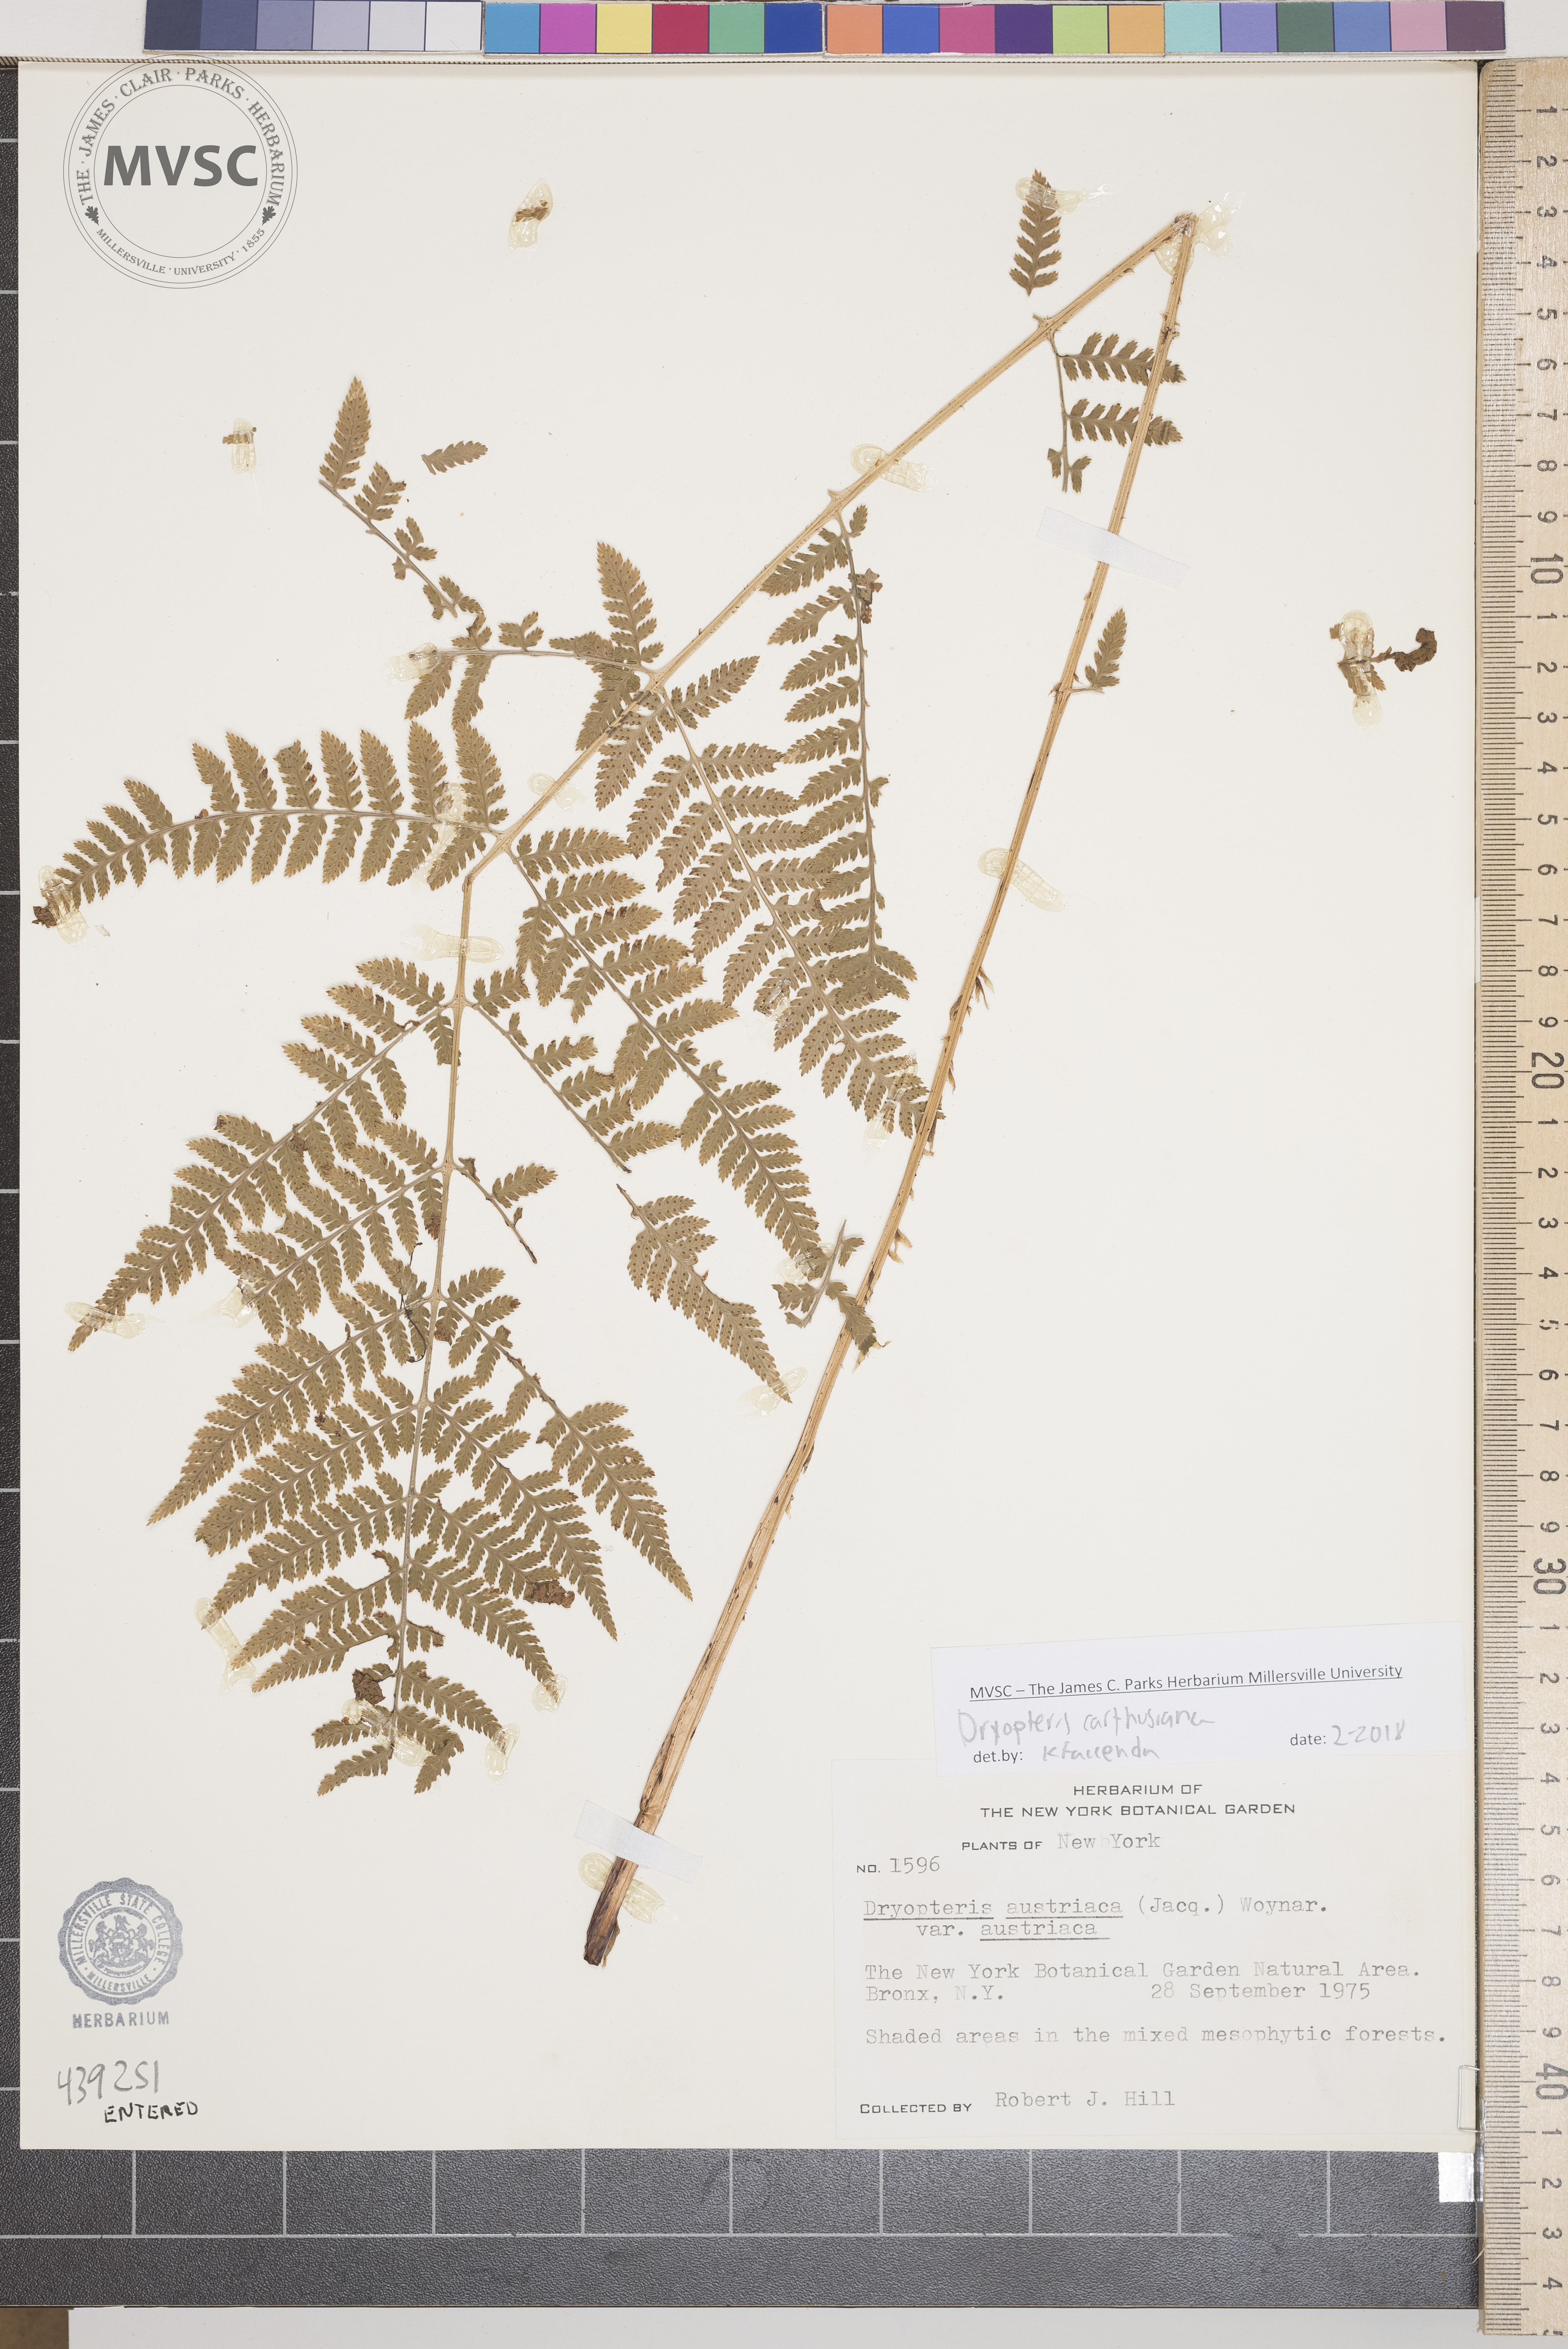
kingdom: Plantae
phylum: Tracheophyta
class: Polypodiopsida
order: Polypodiales
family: Dryopteridaceae
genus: Dryopteris
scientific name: Dryopteris carthusiana
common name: Spinulose woodfern
